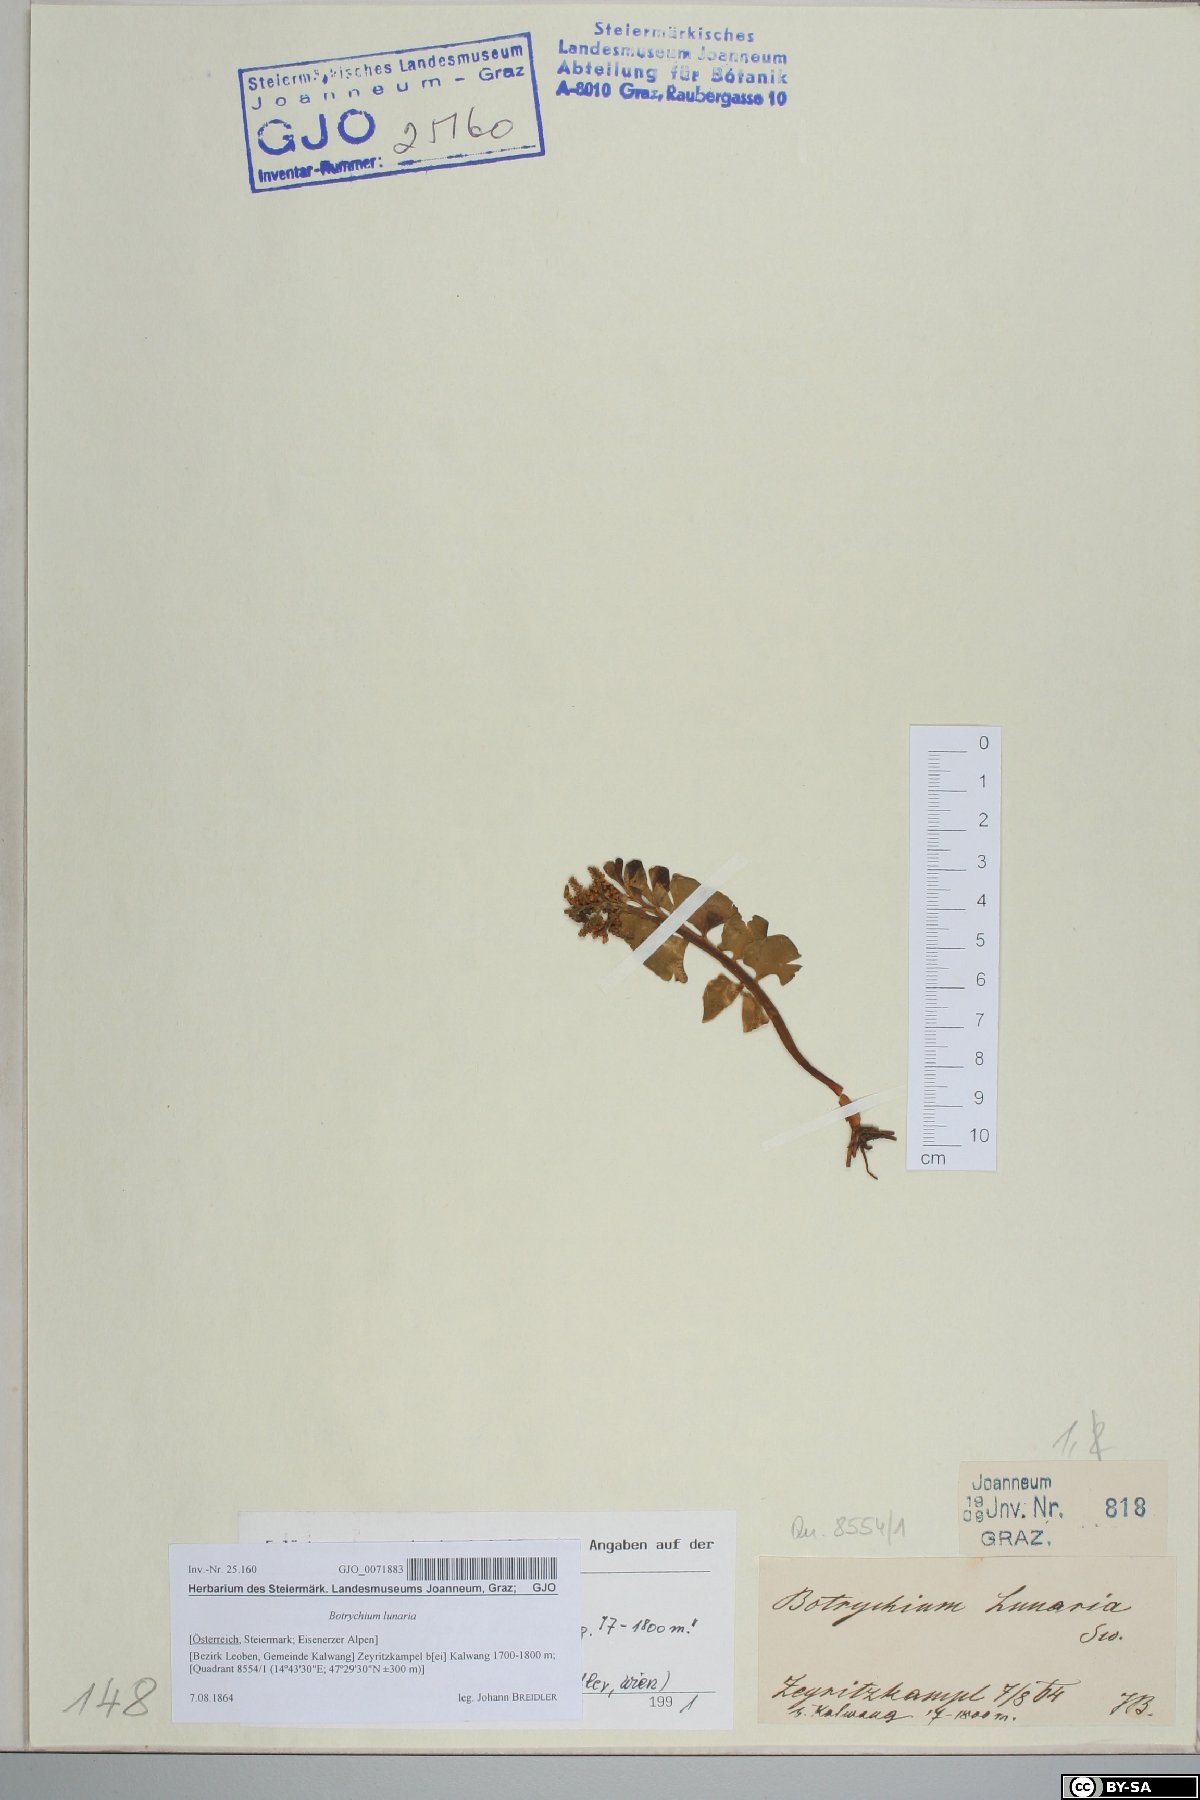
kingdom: Plantae
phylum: Tracheophyta
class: Polypodiopsida
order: Ophioglossales
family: Ophioglossaceae
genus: Botrychium
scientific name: Botrychium lunaria
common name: Moonwort
